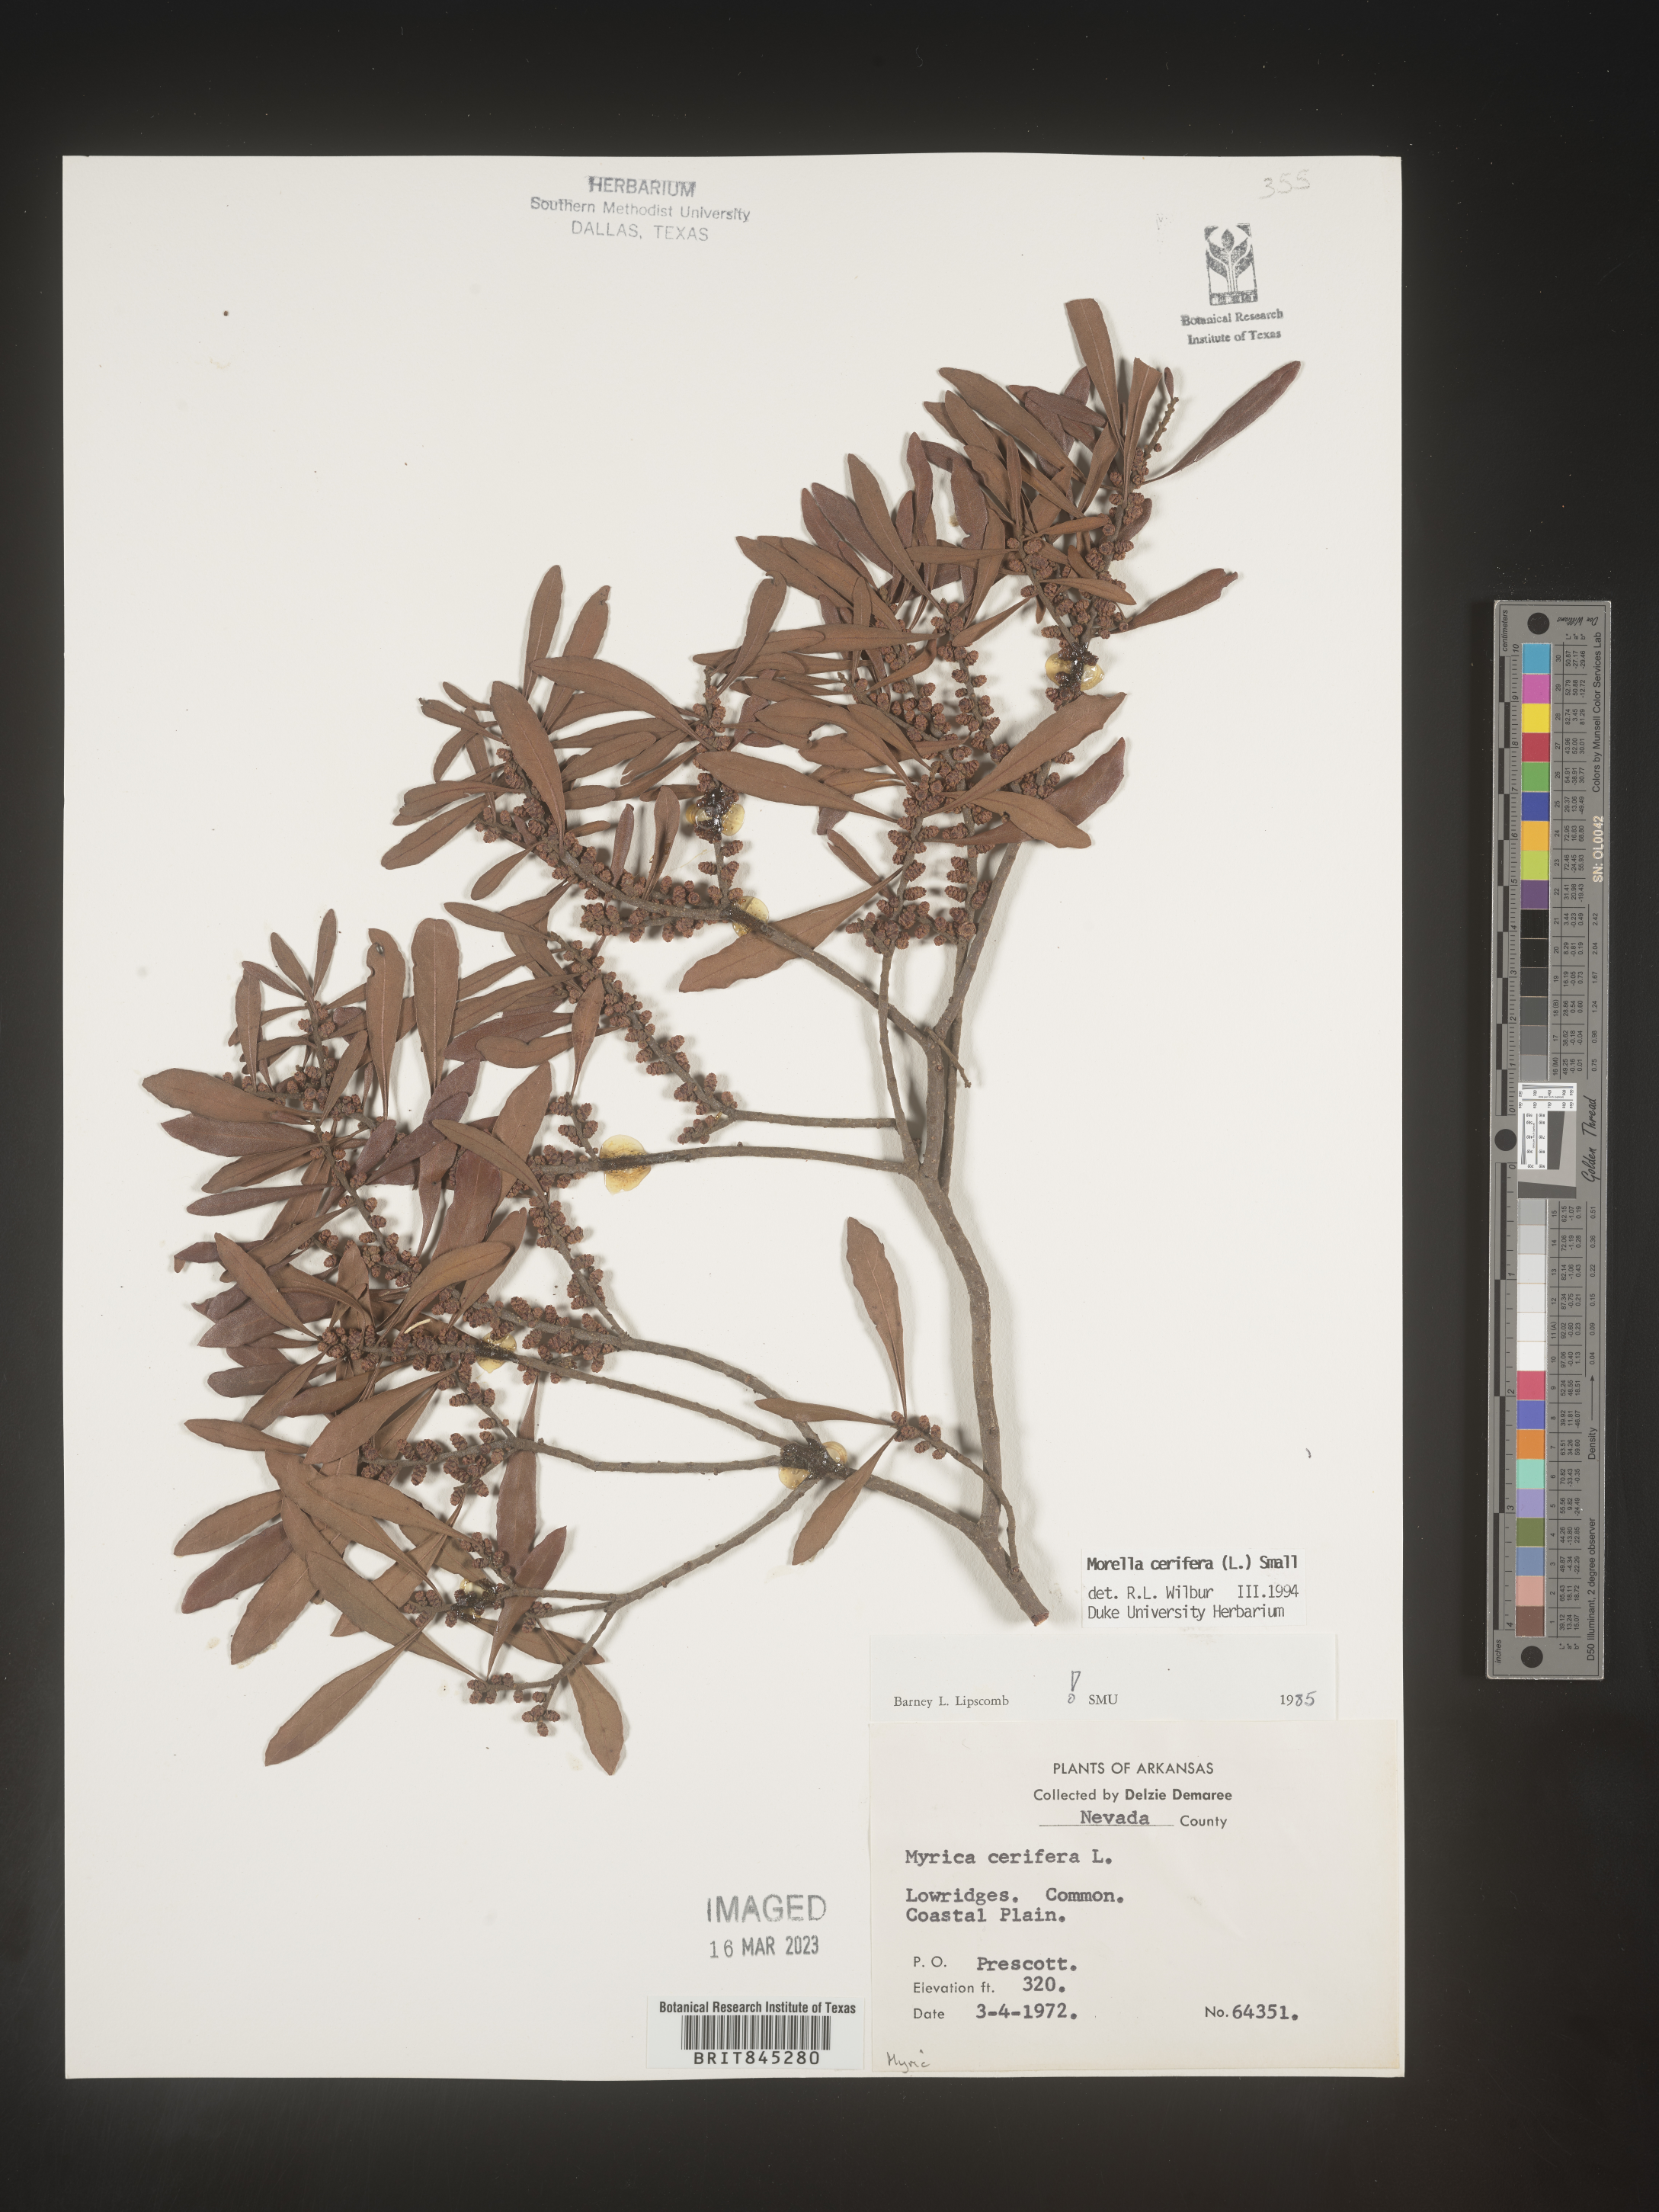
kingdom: Plantae
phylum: Tracheophyta
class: Magnoliopsida
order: Fagales
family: Myricaceae
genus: Morella
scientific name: Morella cerifera
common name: Wax myrtle
